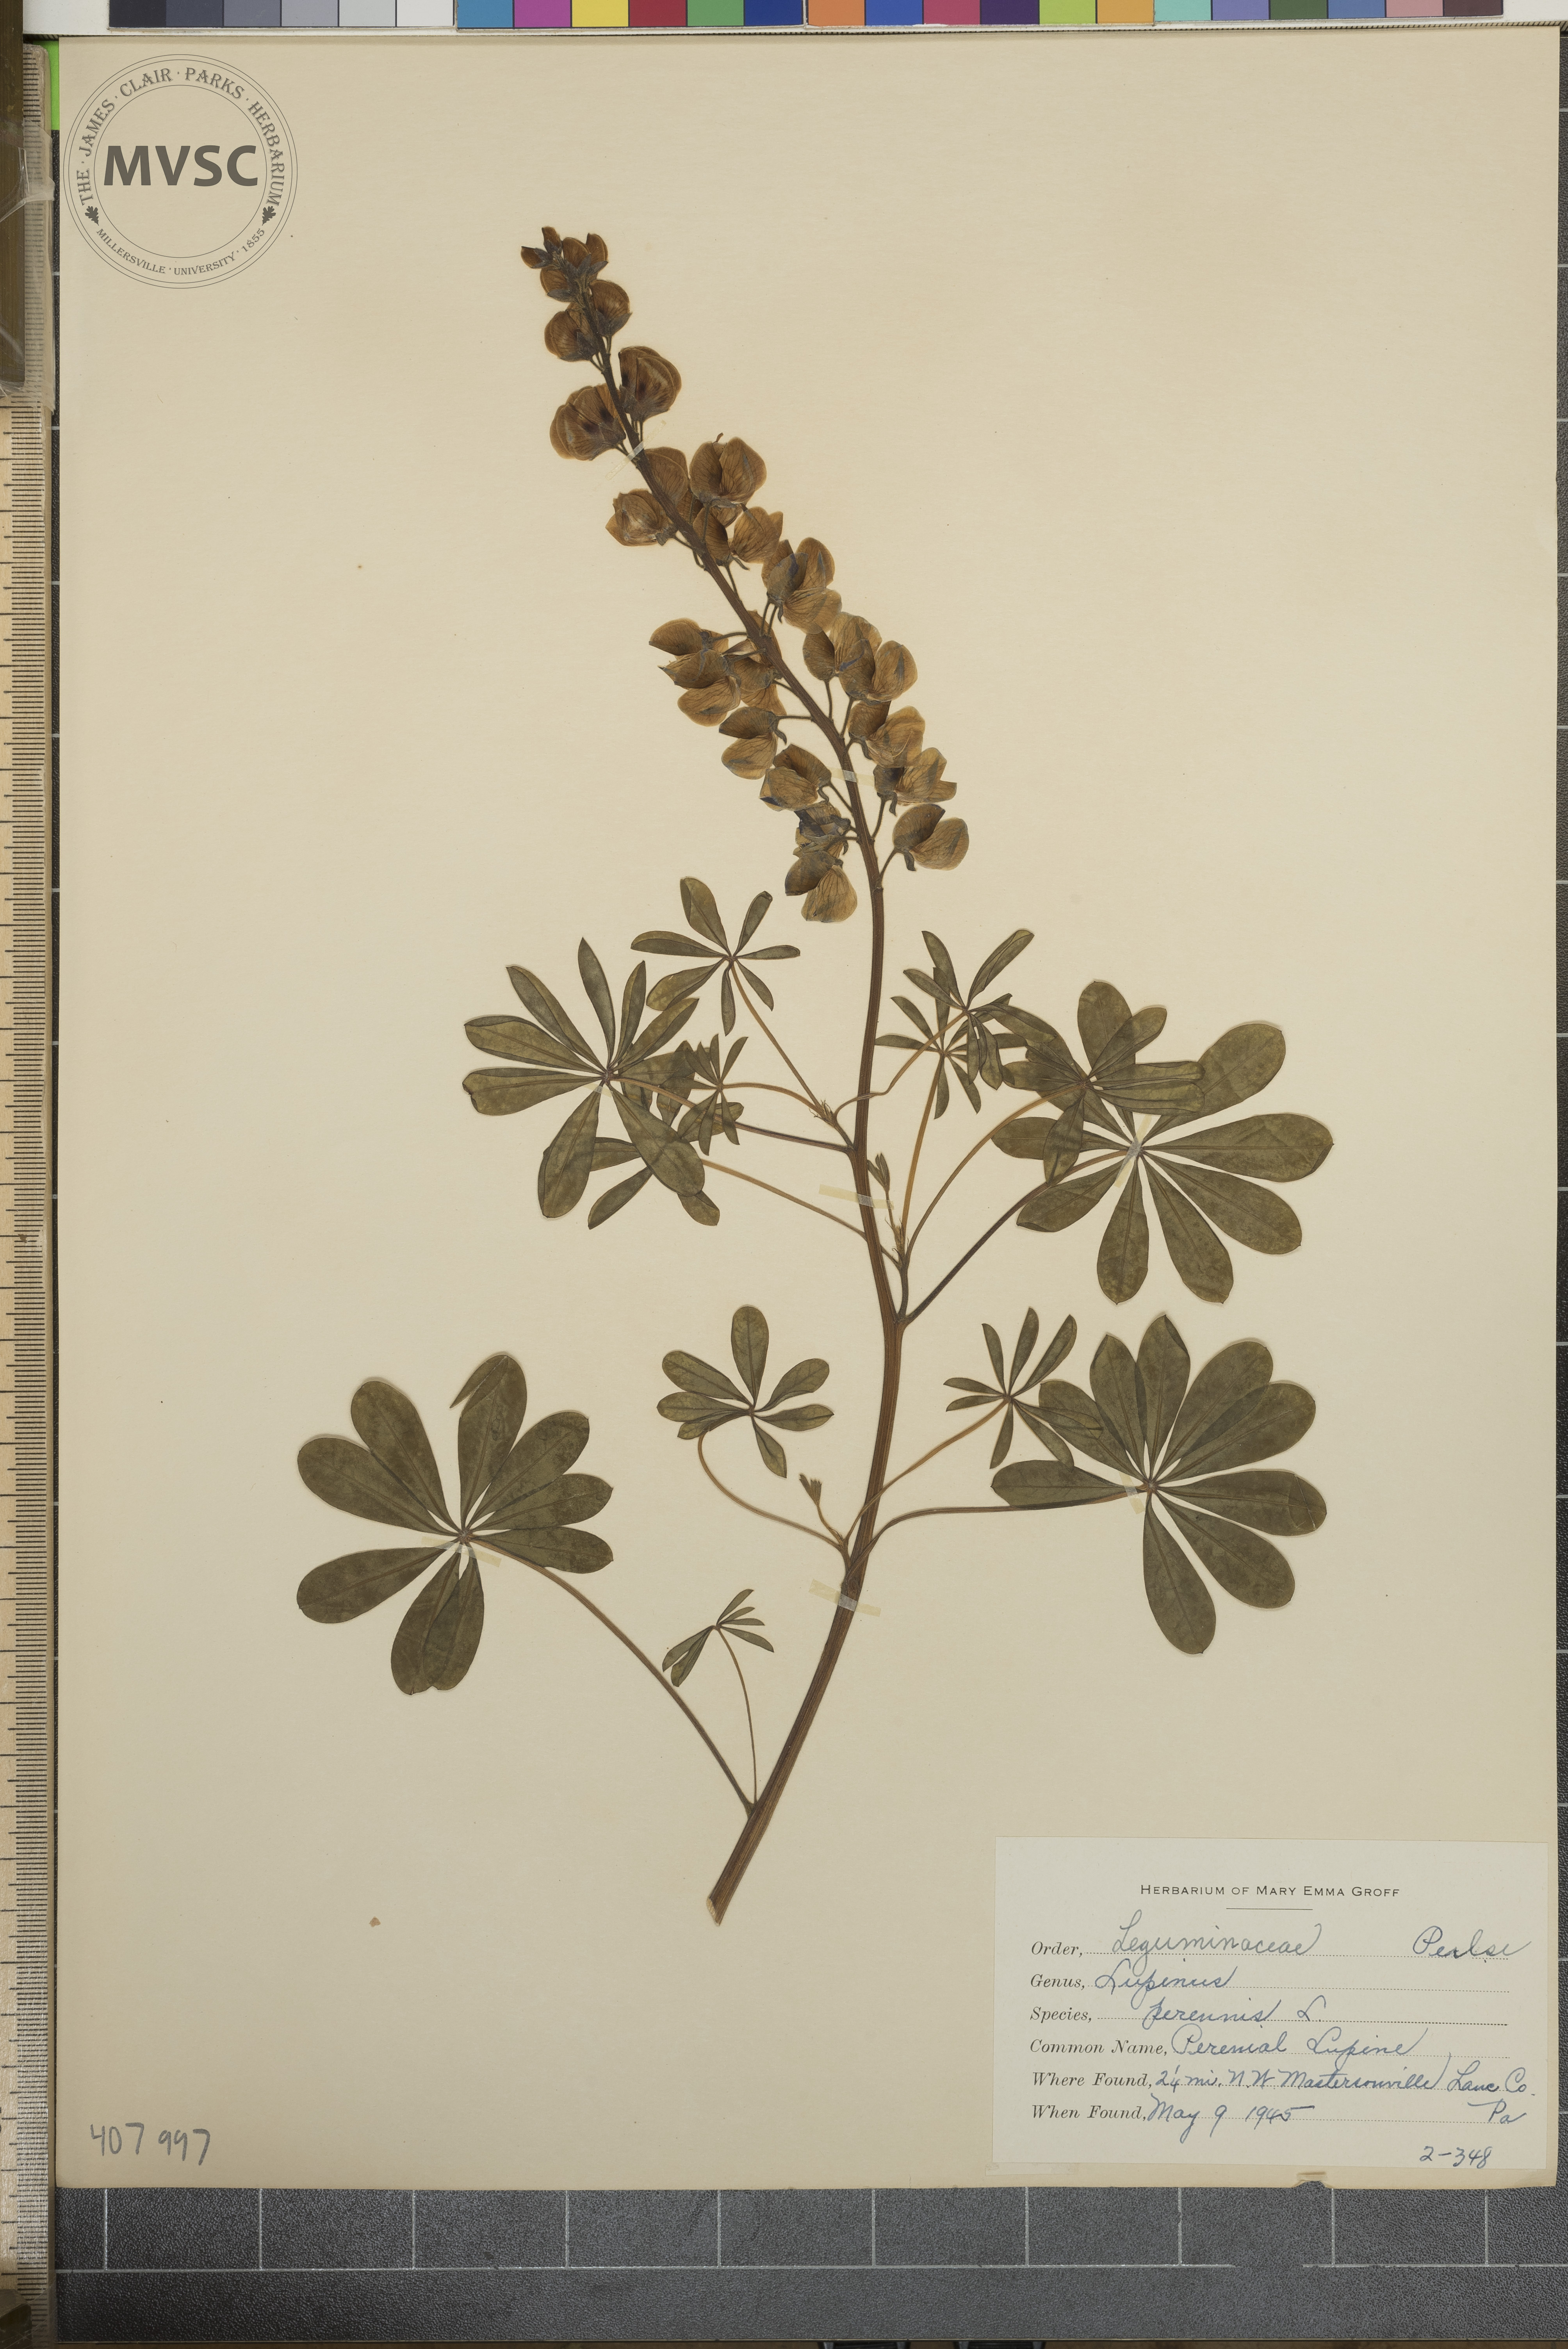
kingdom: Plantae
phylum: Tracheophyta
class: Magnoliopsida
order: Fabales
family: Fabaceae
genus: Lupinus
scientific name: Lupinus perennis
